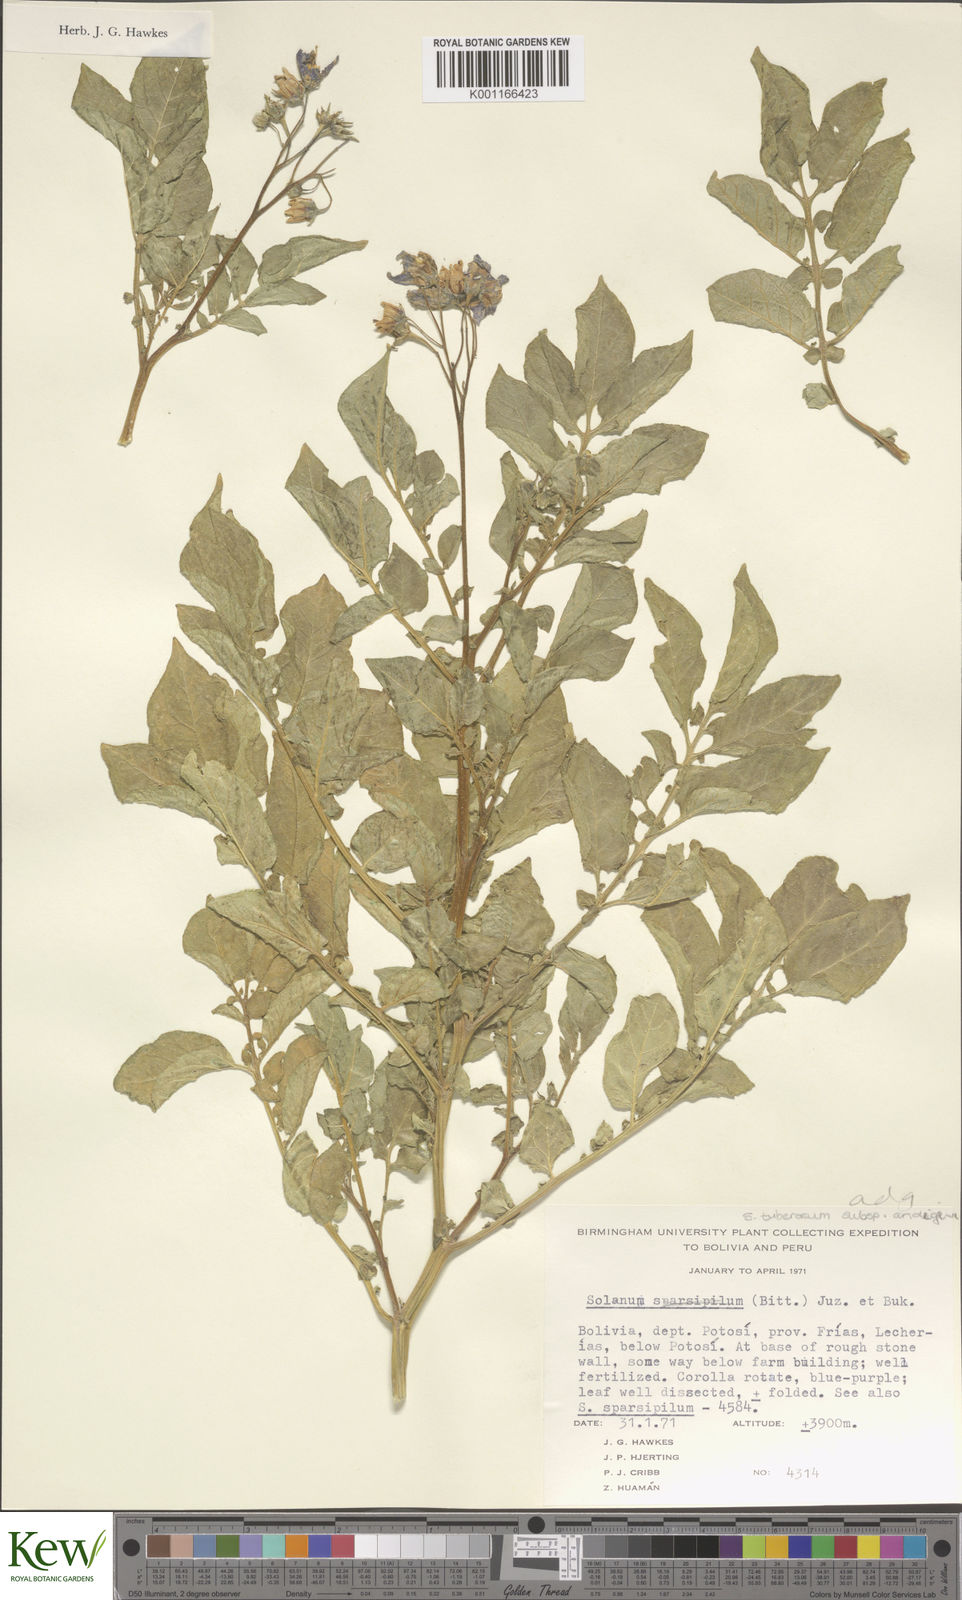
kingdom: Plantae
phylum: Tracheophyta
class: Magnoliopsida
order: Solanales
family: Solanaceae
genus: Solanum
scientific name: Solanum tuberosum
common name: Potato
